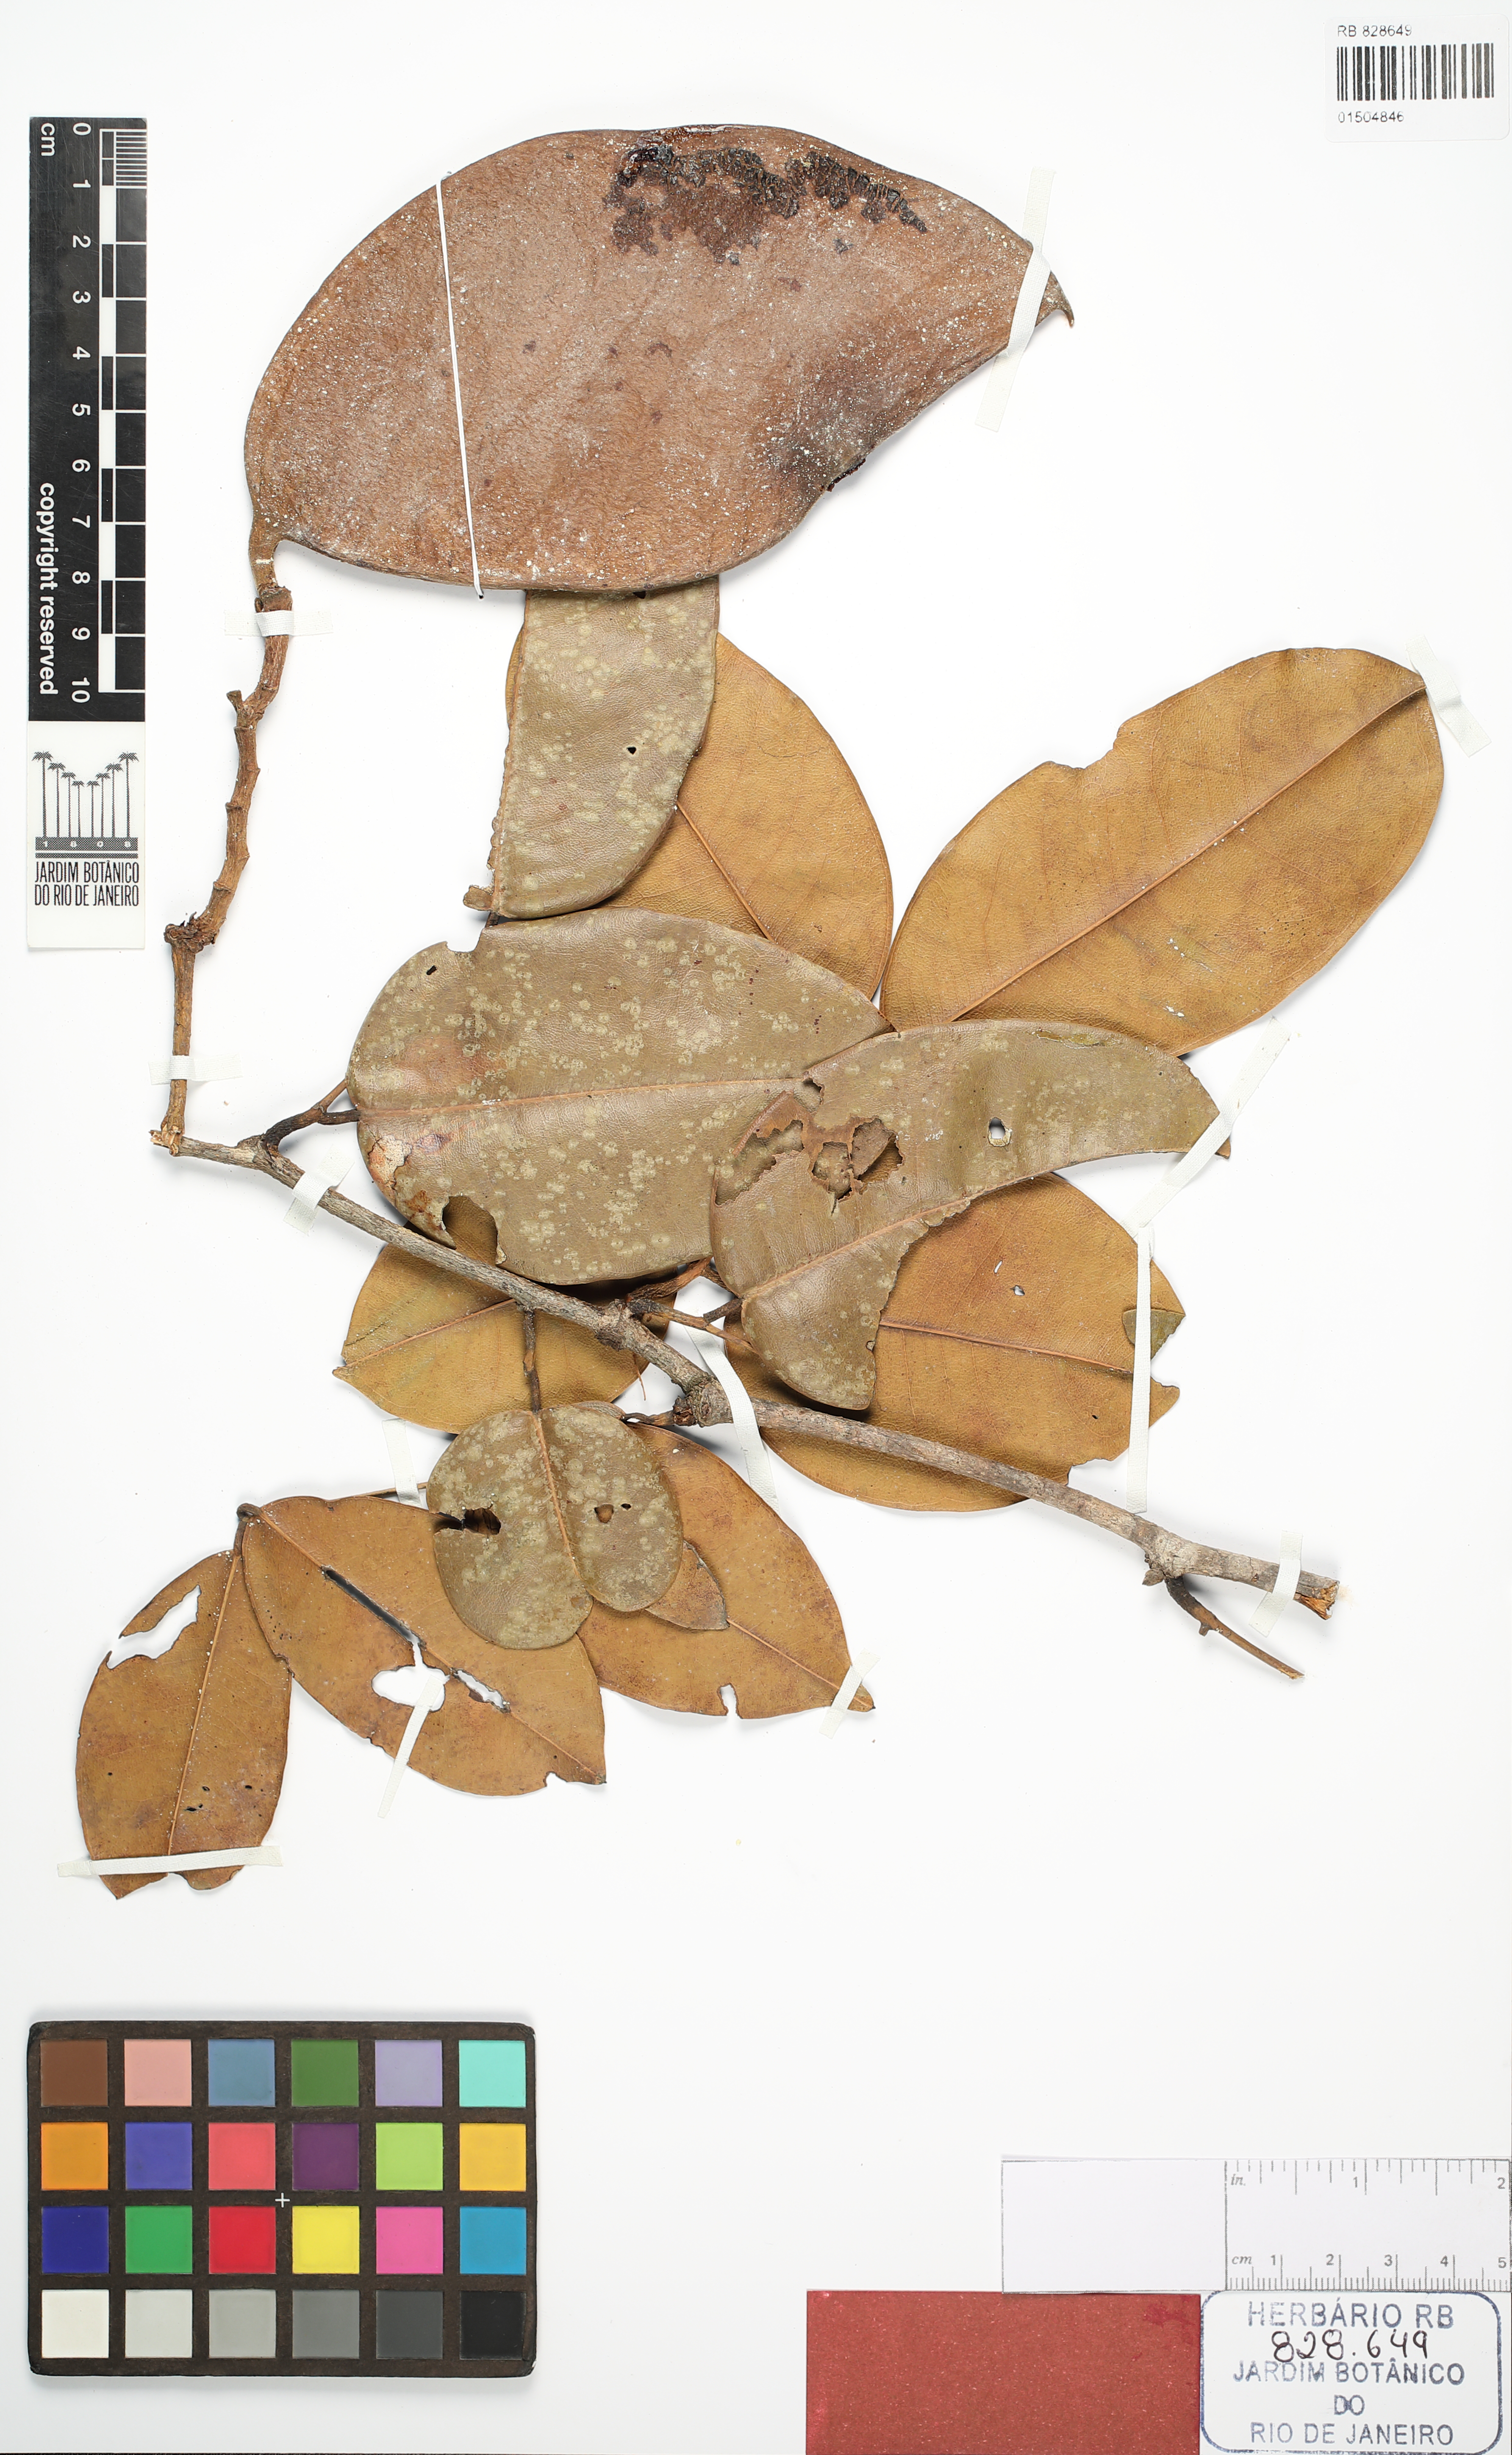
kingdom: Plantae
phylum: Tracheophyta
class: Magnoliopsida
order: Fabales
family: Fabaceae
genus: Eperua
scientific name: Eperua manausensis
